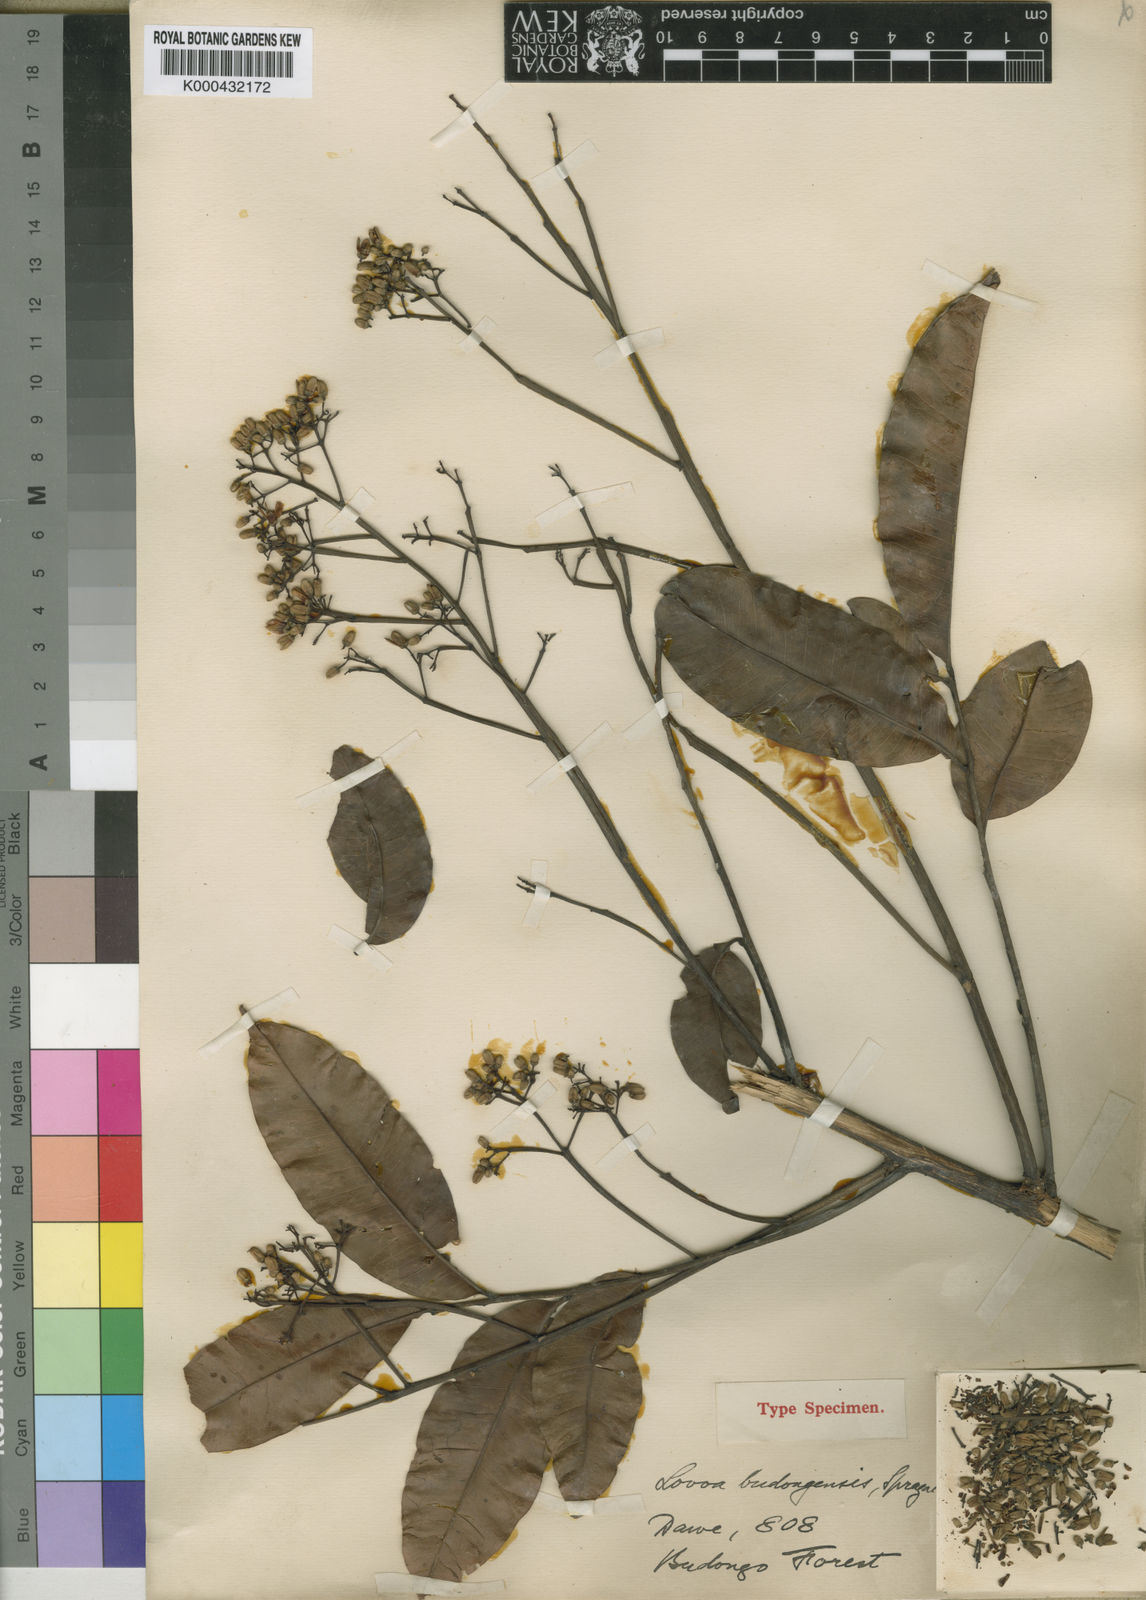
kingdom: Plantae
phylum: Tracheophyta
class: Magnoliopsida
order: Sapindales
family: Meliaceae
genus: Lovoa
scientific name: Lovoa trichilioides
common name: Congowood
